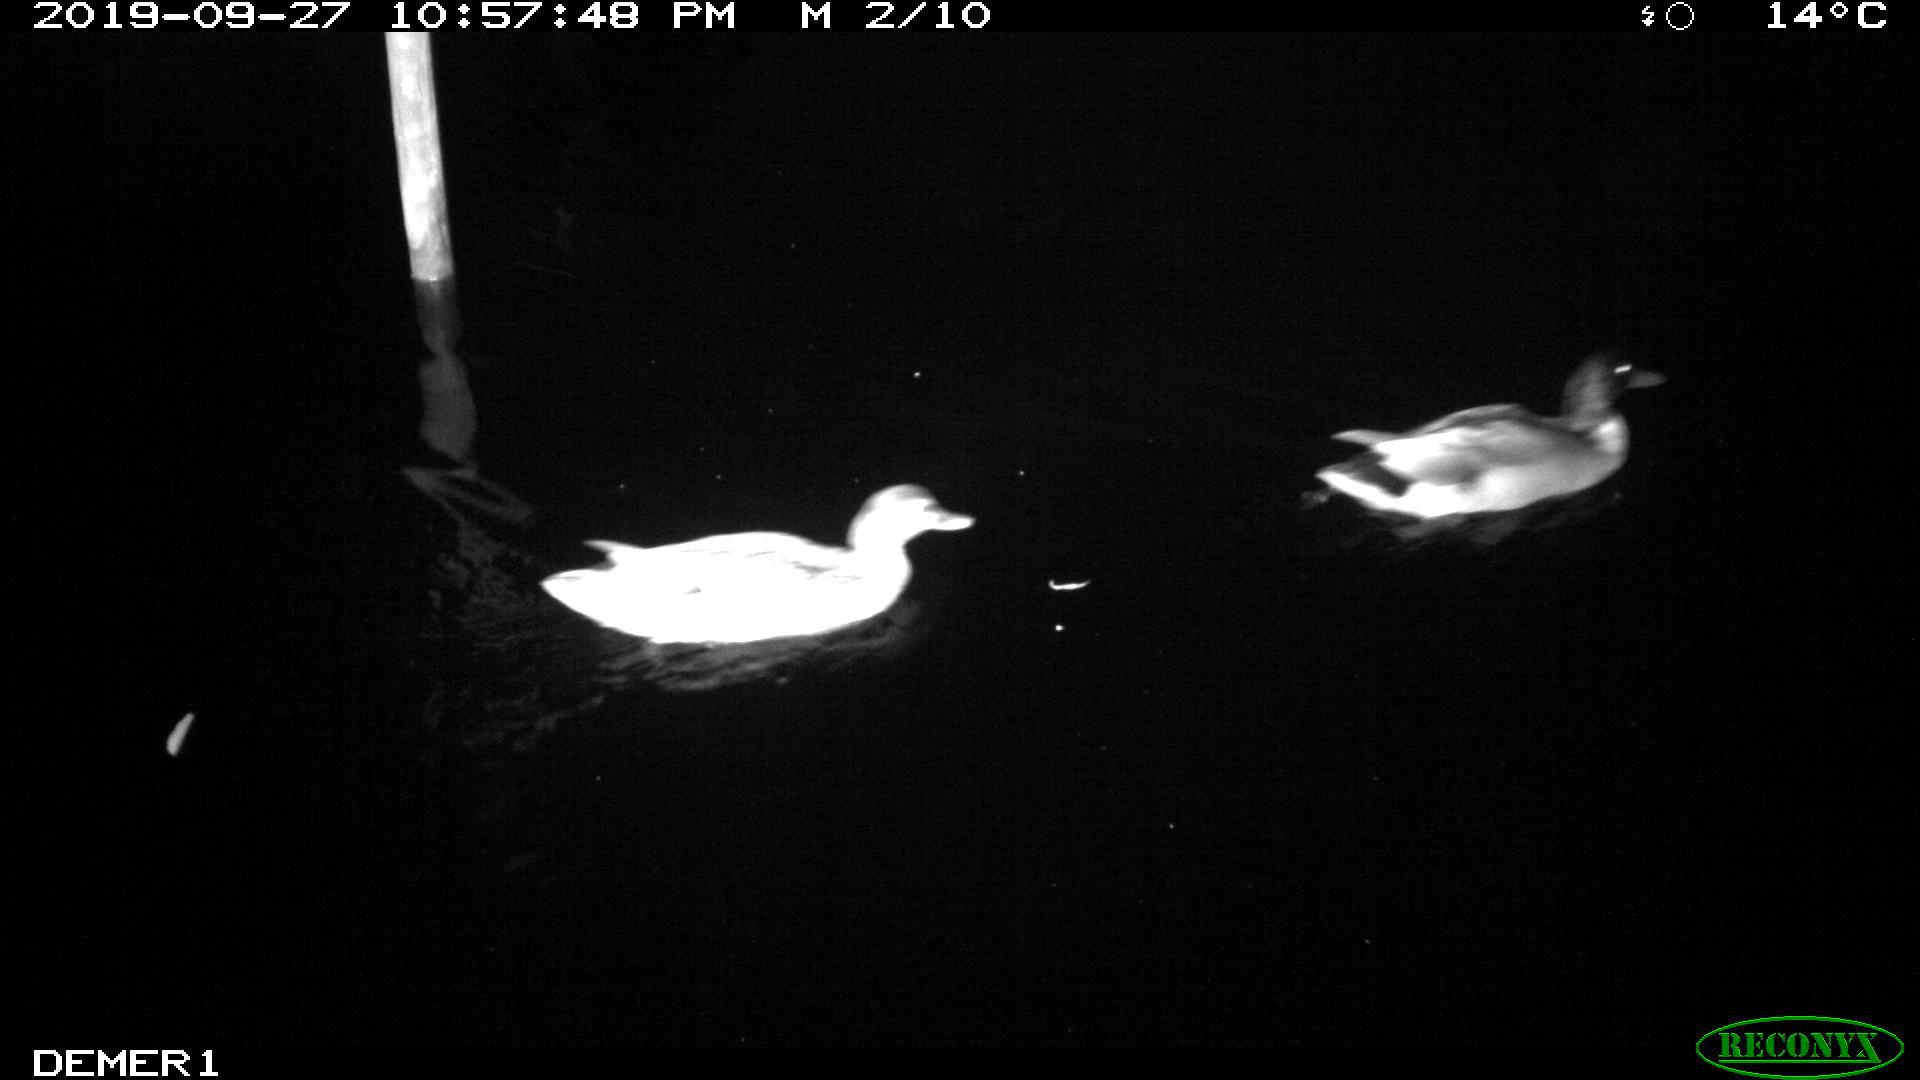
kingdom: Animalia
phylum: Chordata
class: Aves
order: Anseriformes
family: Anatidae
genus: Anas
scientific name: Anas platyrhynchos
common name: Mallard
